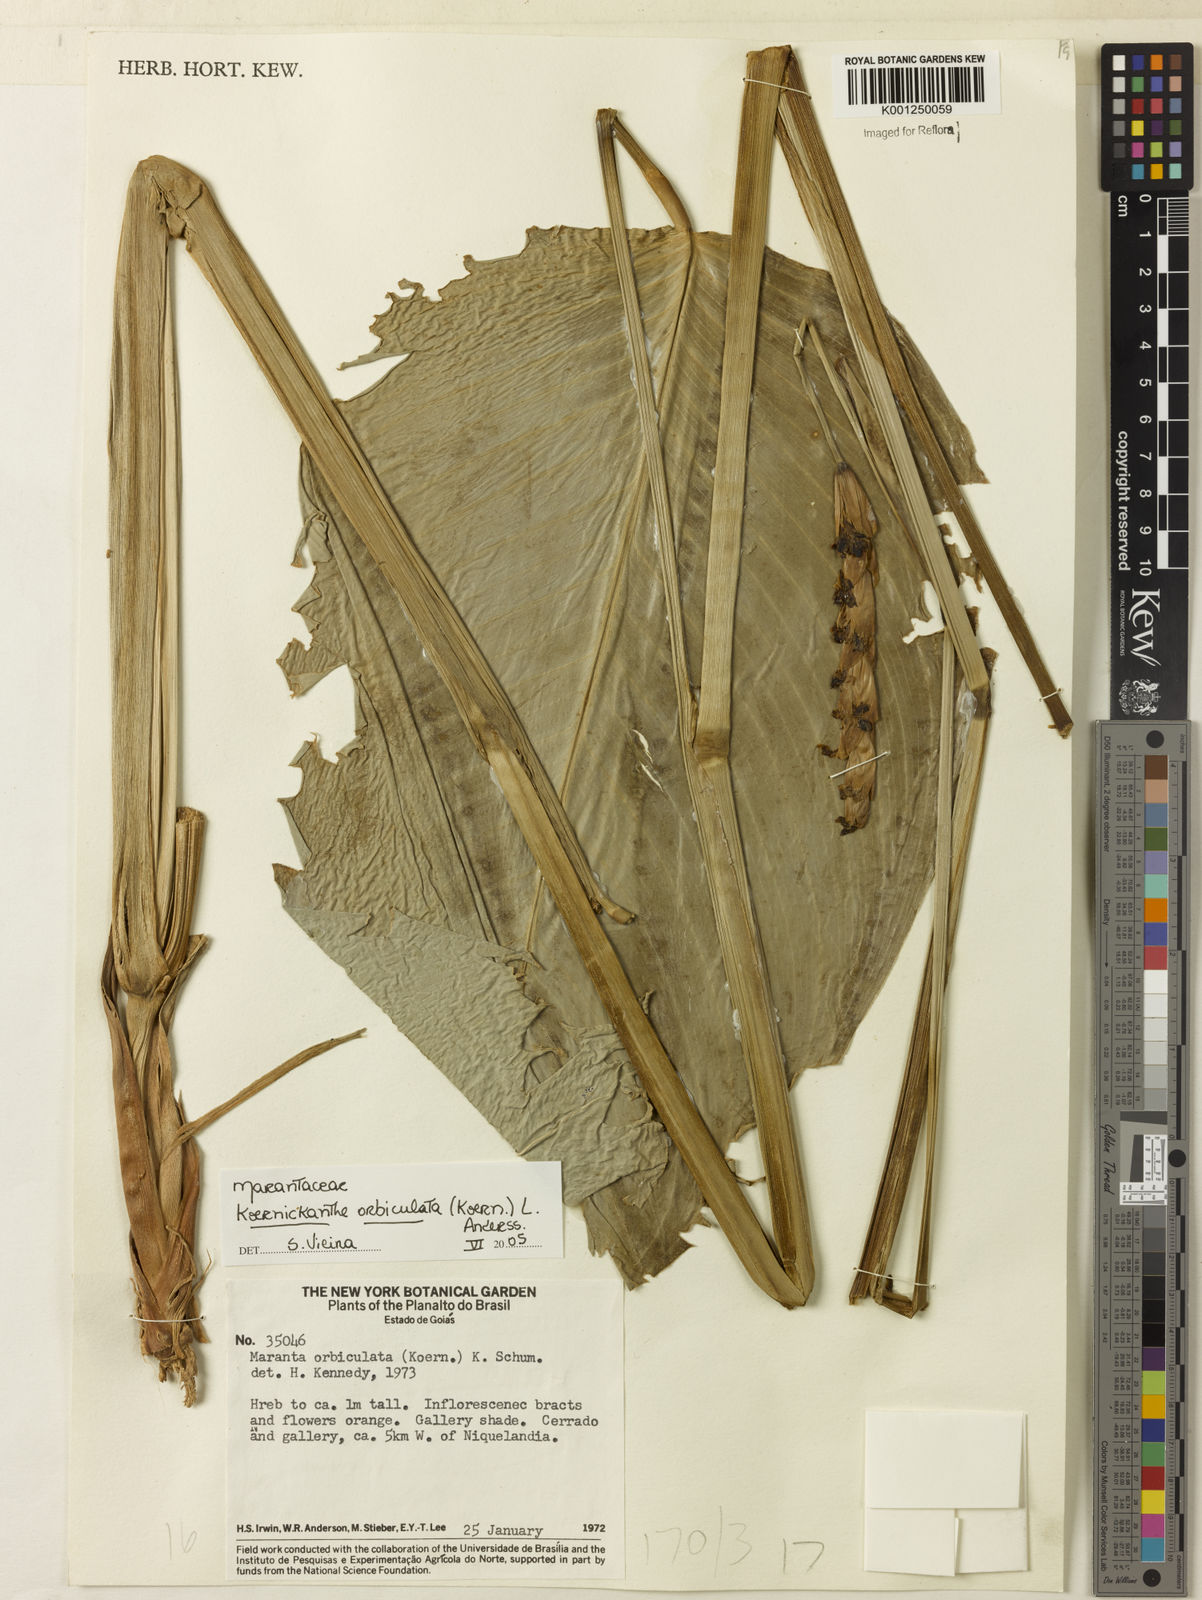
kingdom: Plantae
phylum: Tracheophyta
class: Liliopsida
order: Zingiberales
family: Marantaceae
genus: Koernickanthe
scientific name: Koernickanthe orbiculata
